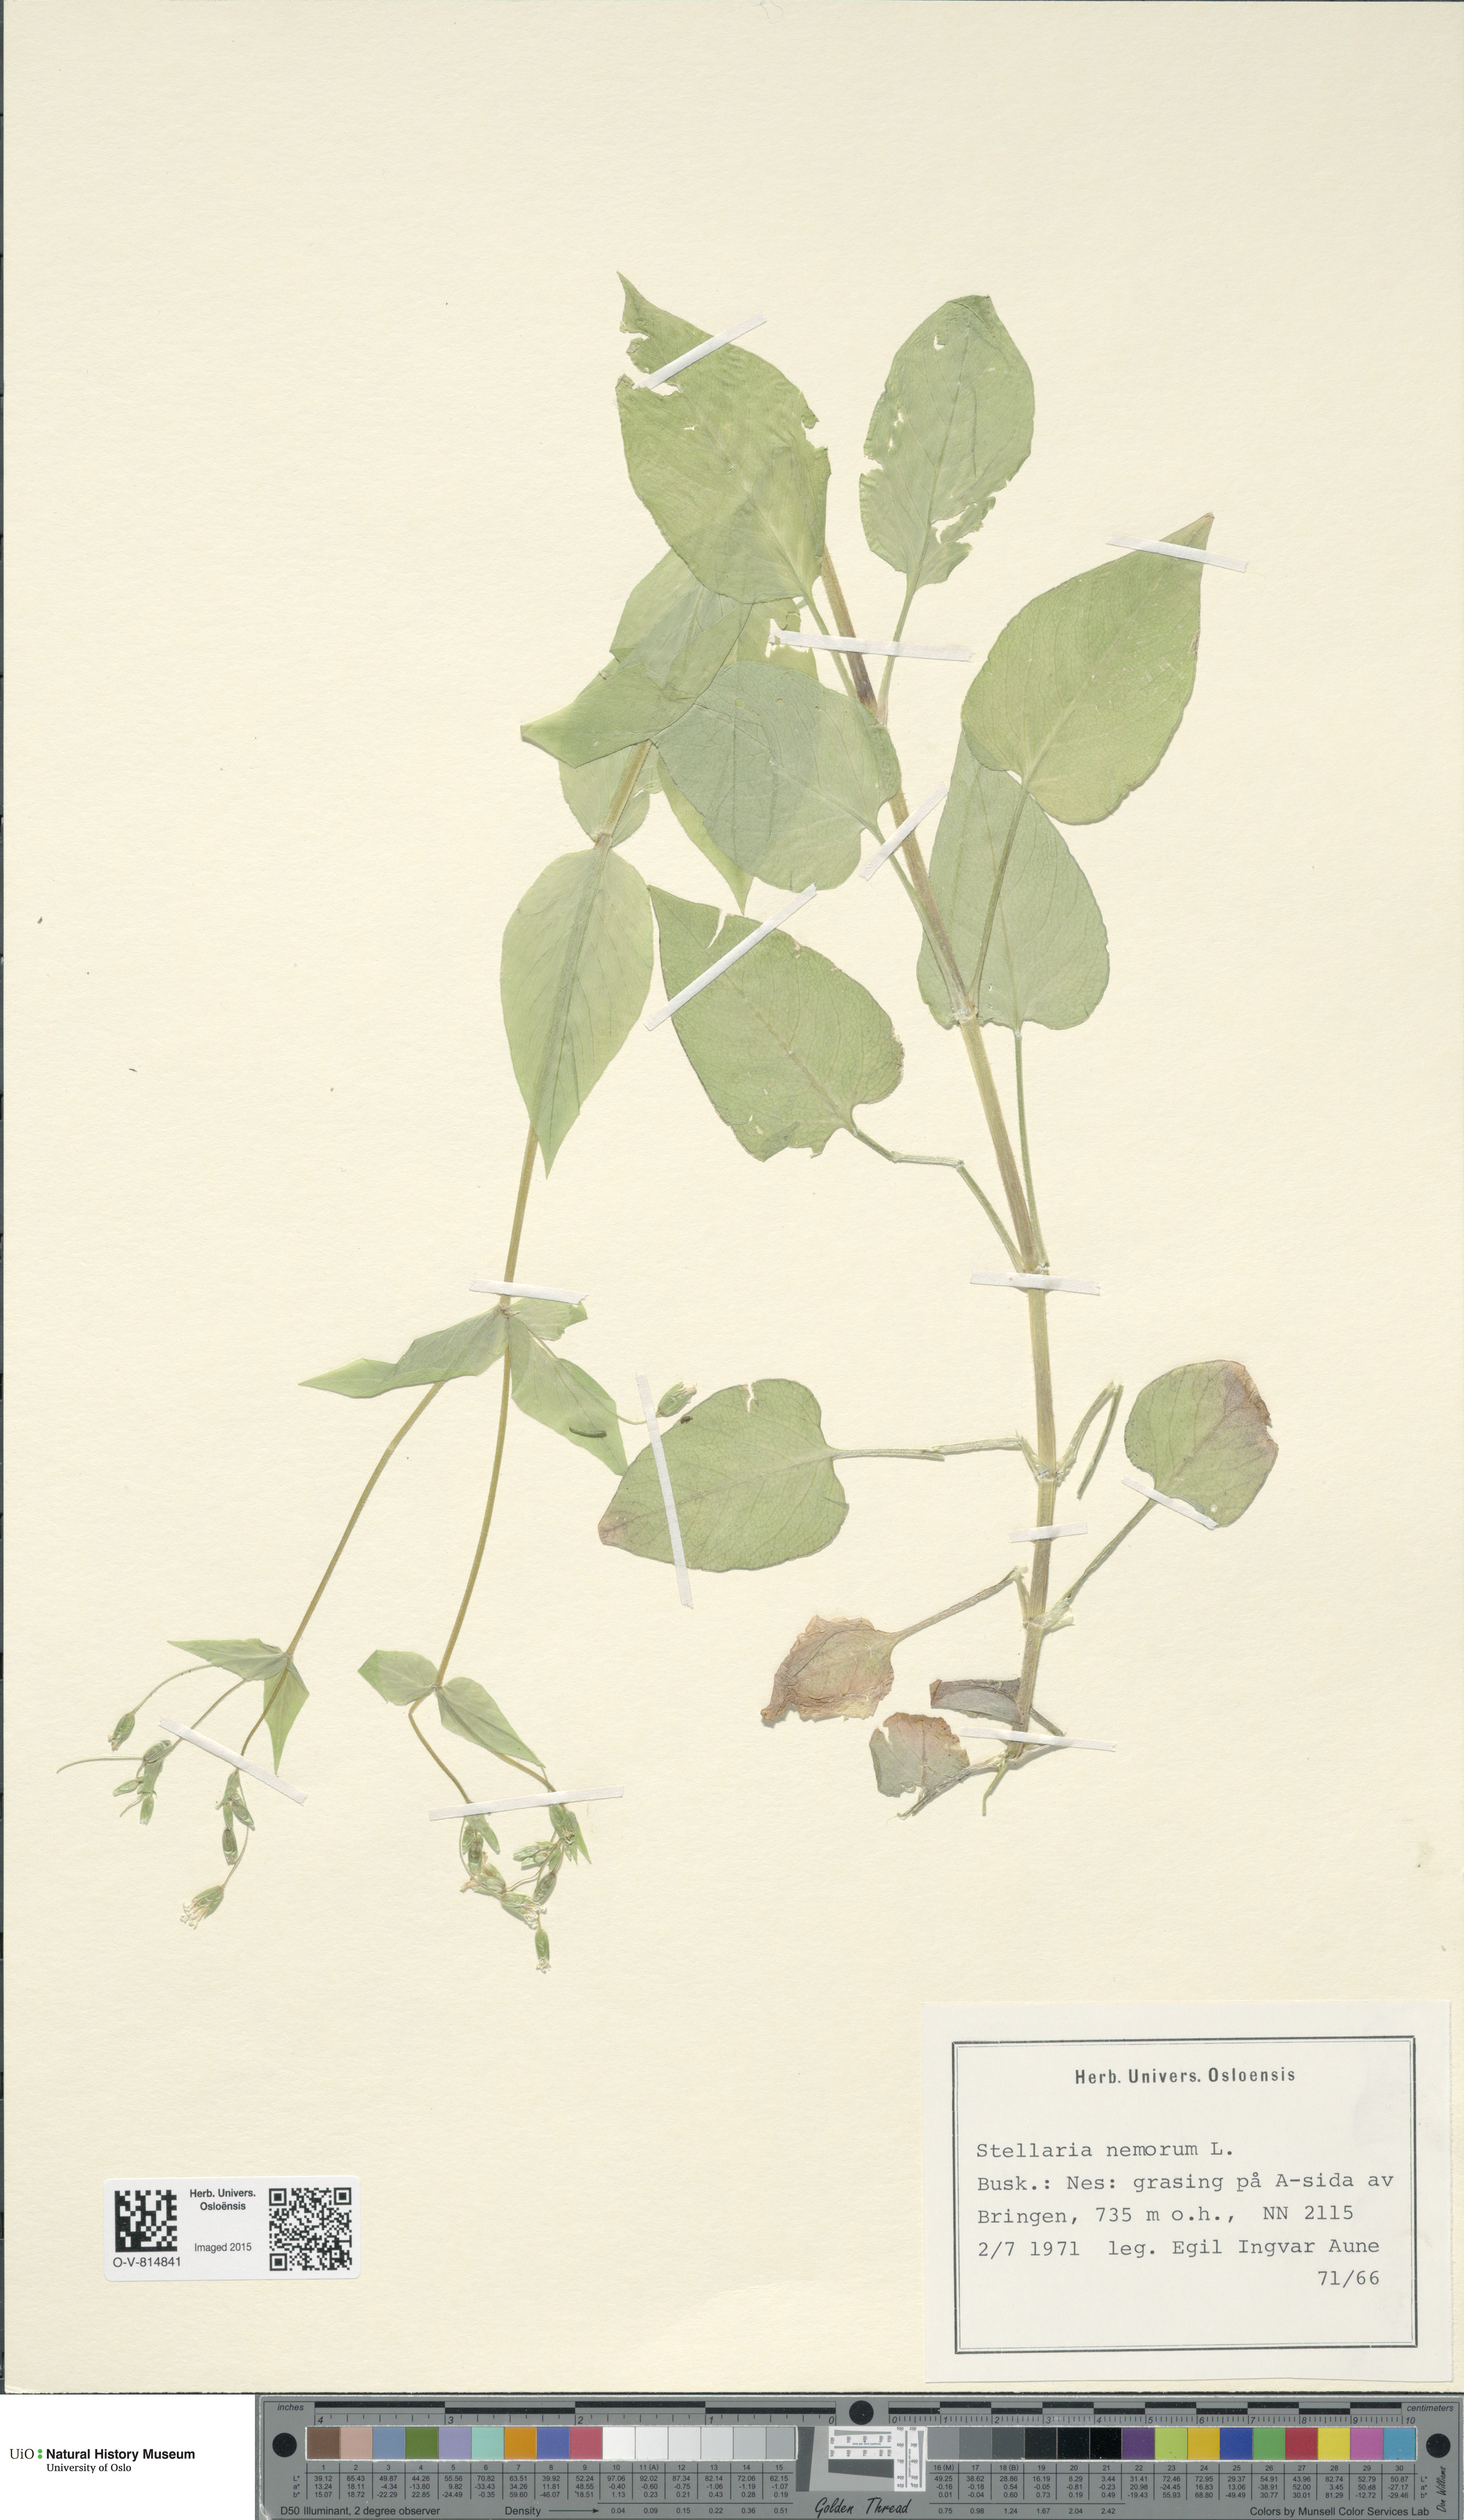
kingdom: Plantae
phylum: Tracheophyta
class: Magnoliopsida
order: Caryophyllales
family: Caryophyllaceae
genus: Stellaria
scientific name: Stellaria nemorum
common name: Wood stitchwort
